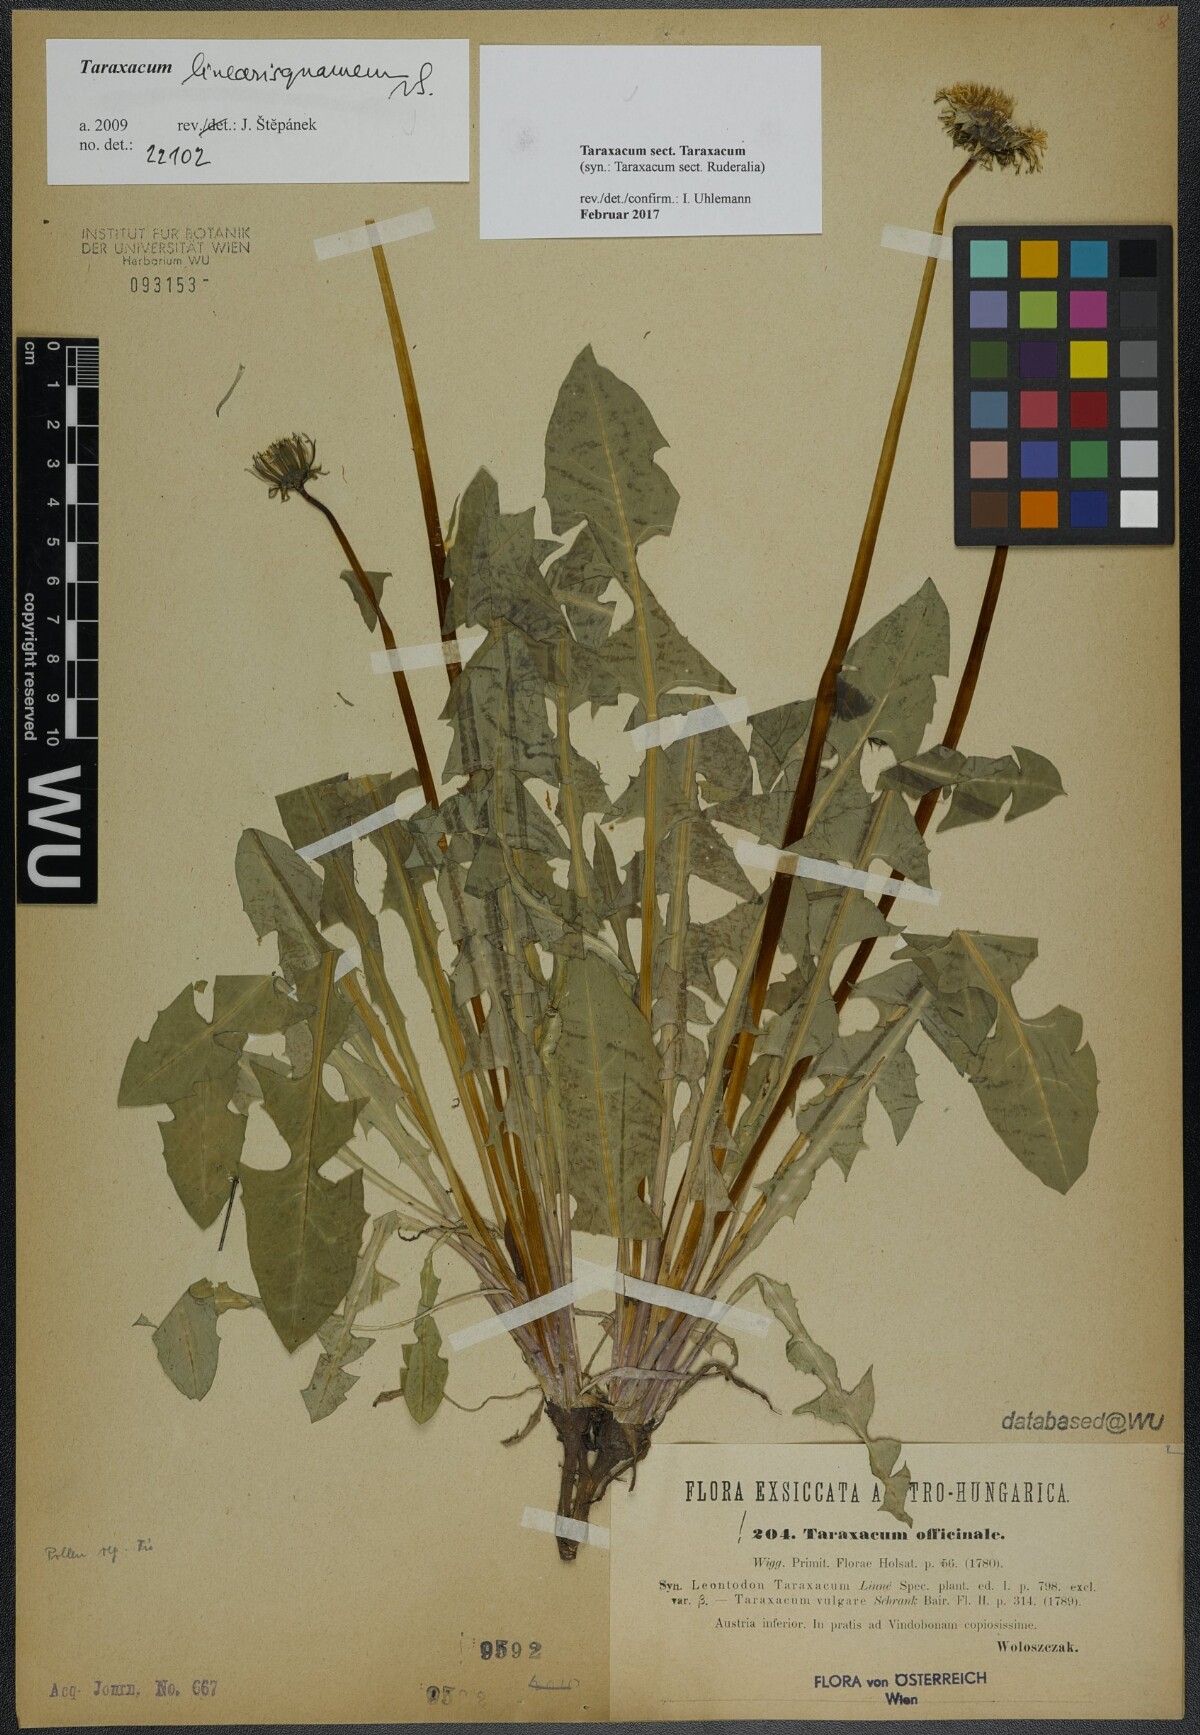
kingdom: Plantae
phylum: Tracheophyta
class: Magnoliopsida
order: Asterales
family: Asteraceae
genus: Taraxacum
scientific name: Taraxacum
